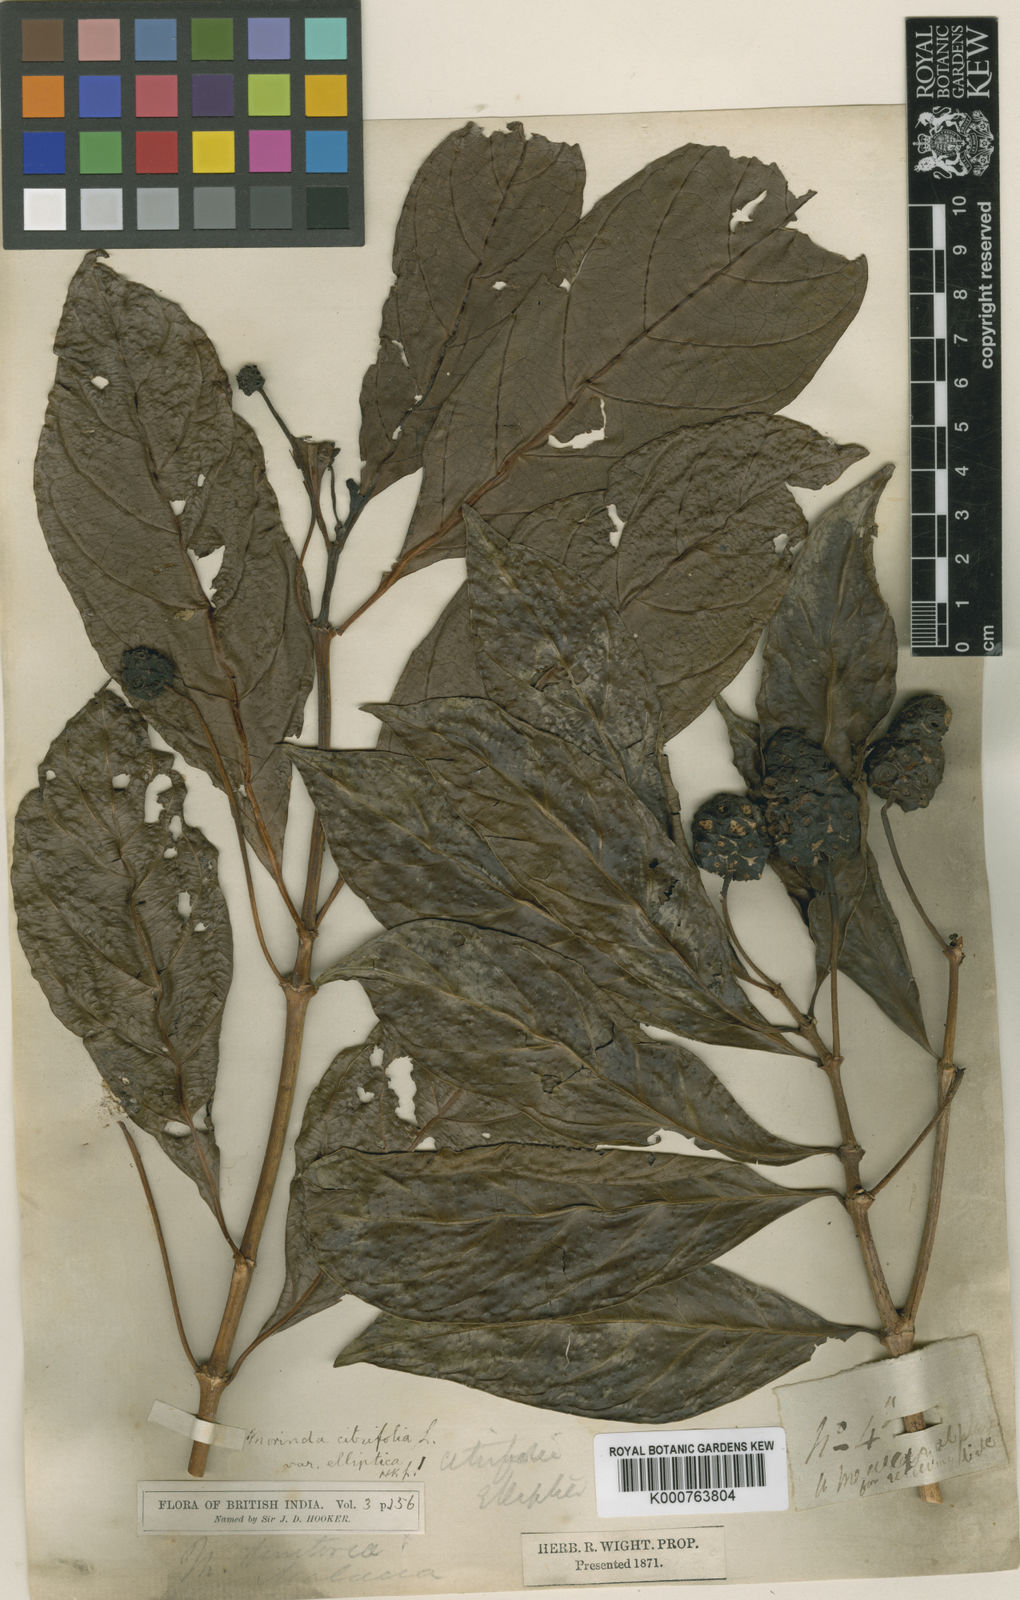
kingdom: Plantae
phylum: Tracheophyta
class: Magnoliopsida
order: Gentianales
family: Rubiaceae
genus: Morinda
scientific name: Morinda elliptica
